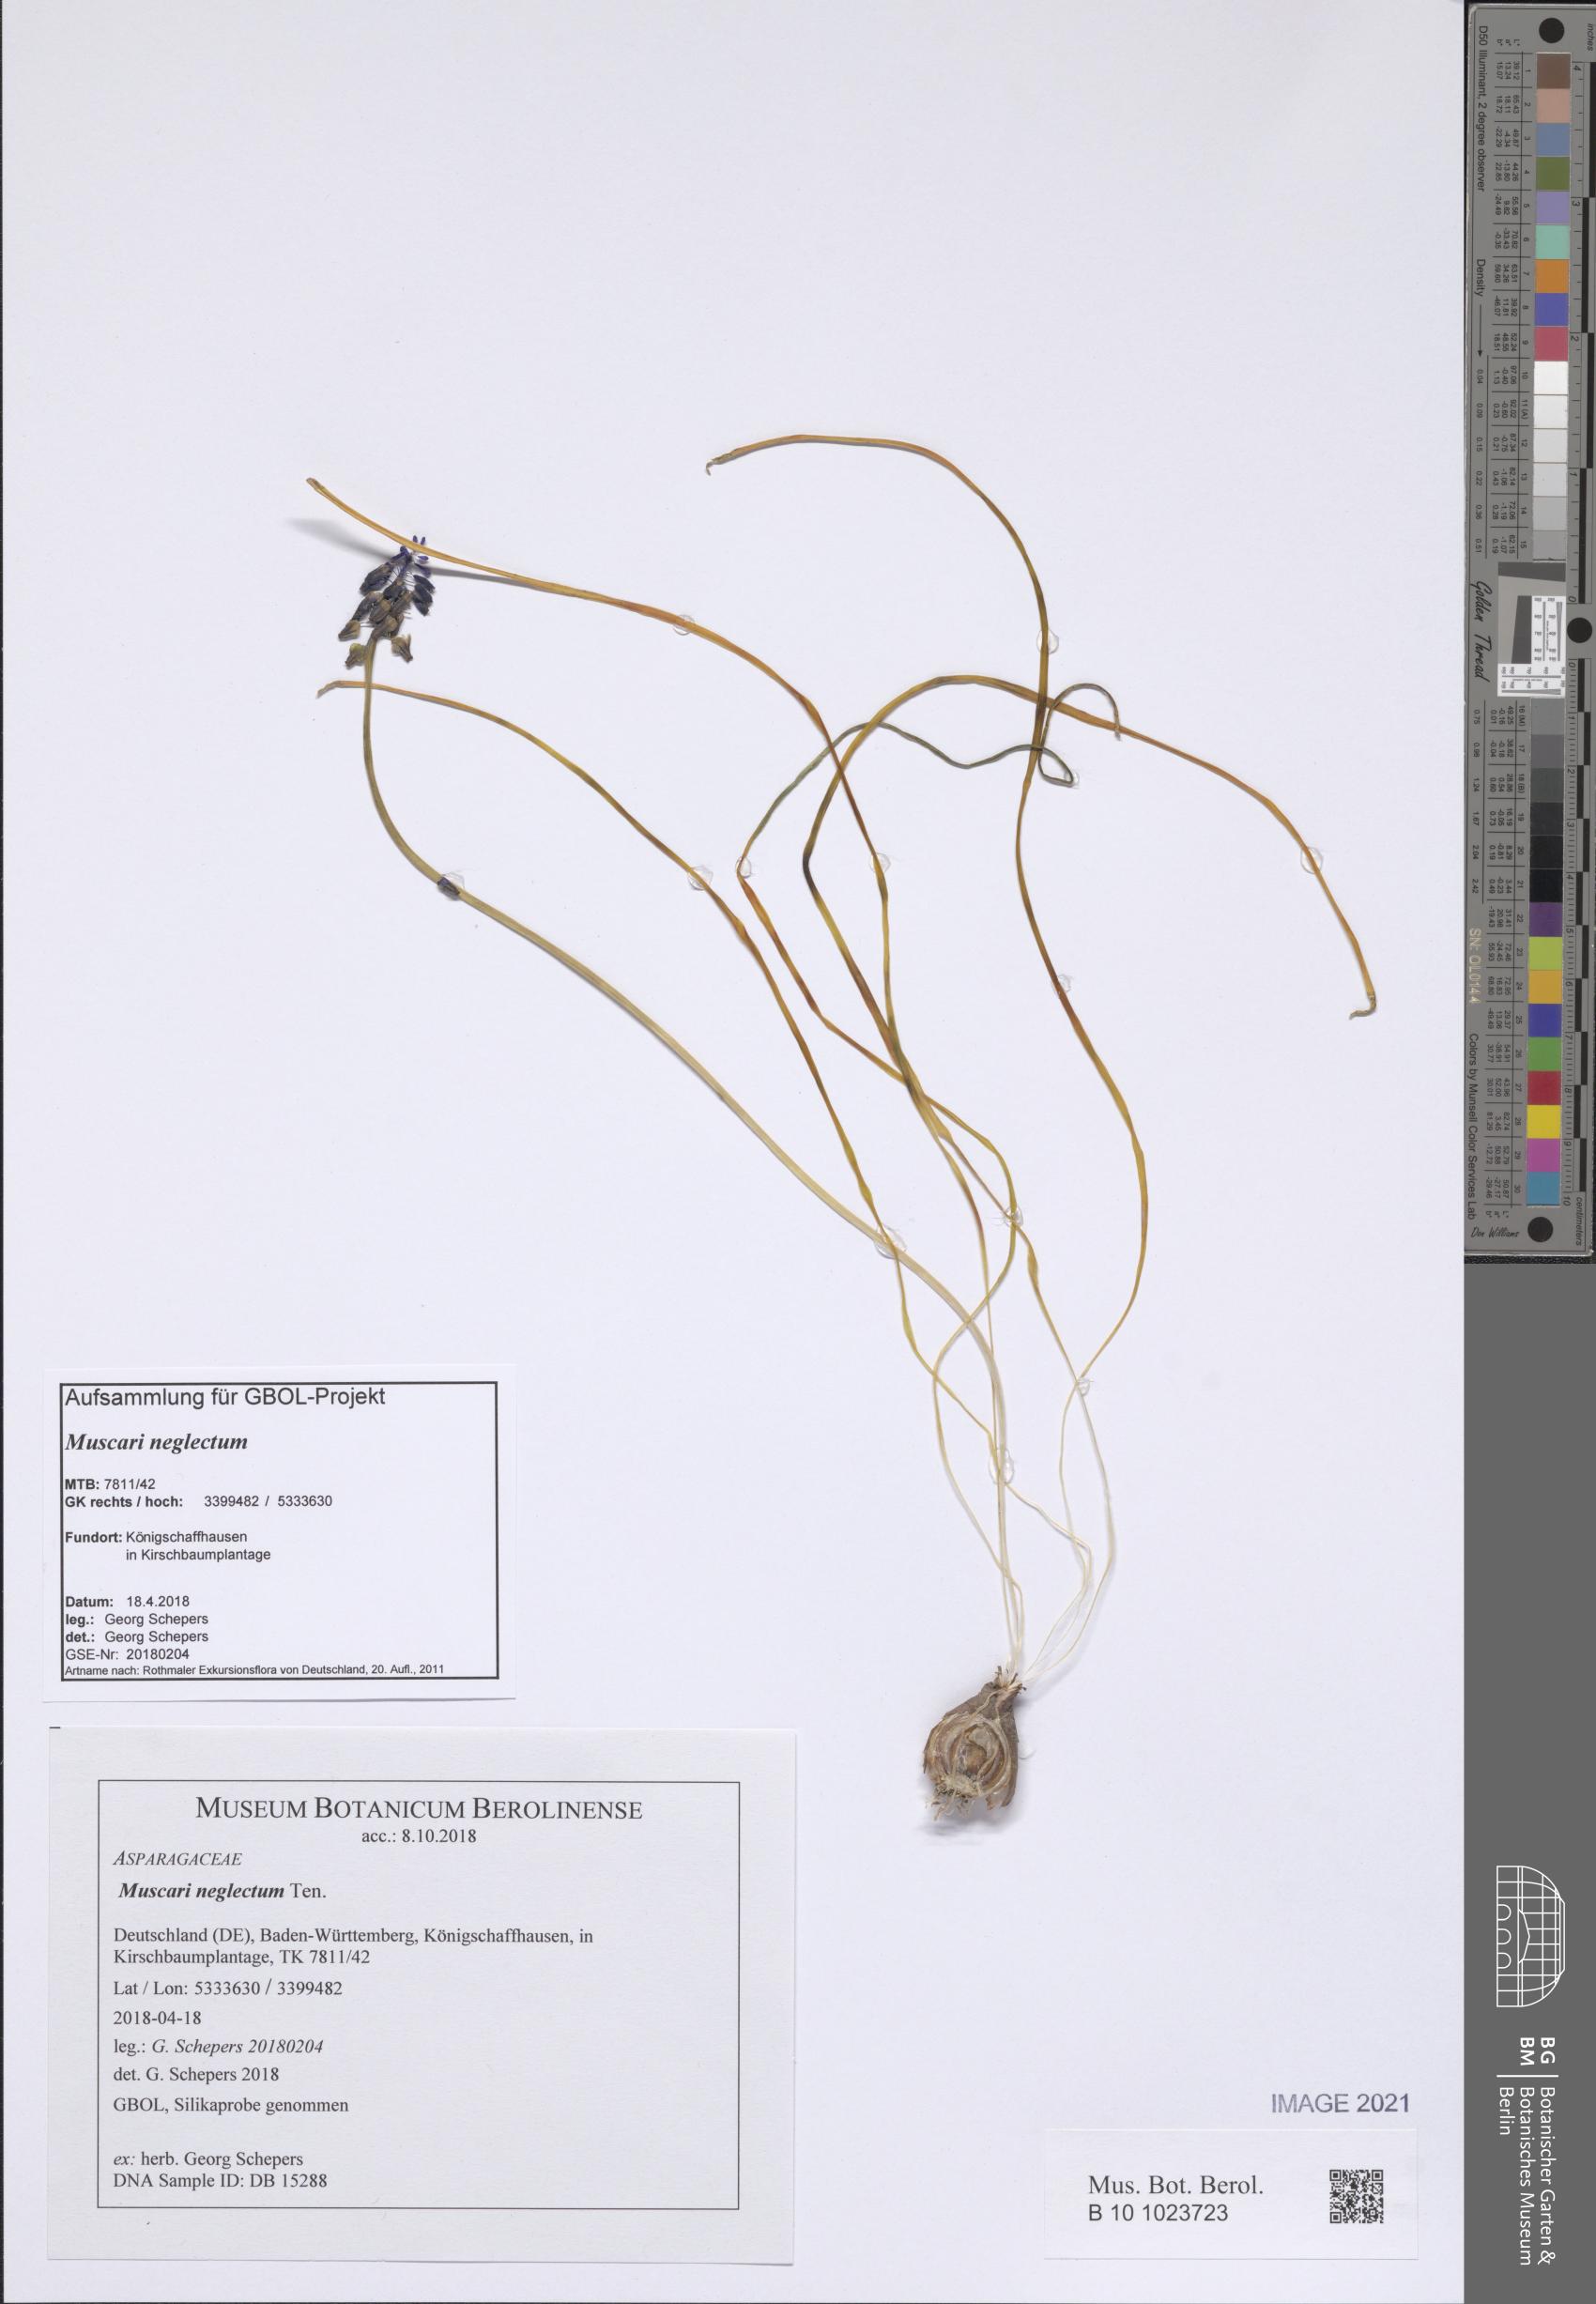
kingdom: Plantae
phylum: Tracheophyta
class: Liliopsida
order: Asparagales
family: Asparagaceae
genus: Muscari
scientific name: Muscari neglectum
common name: Grape-hyacinth
